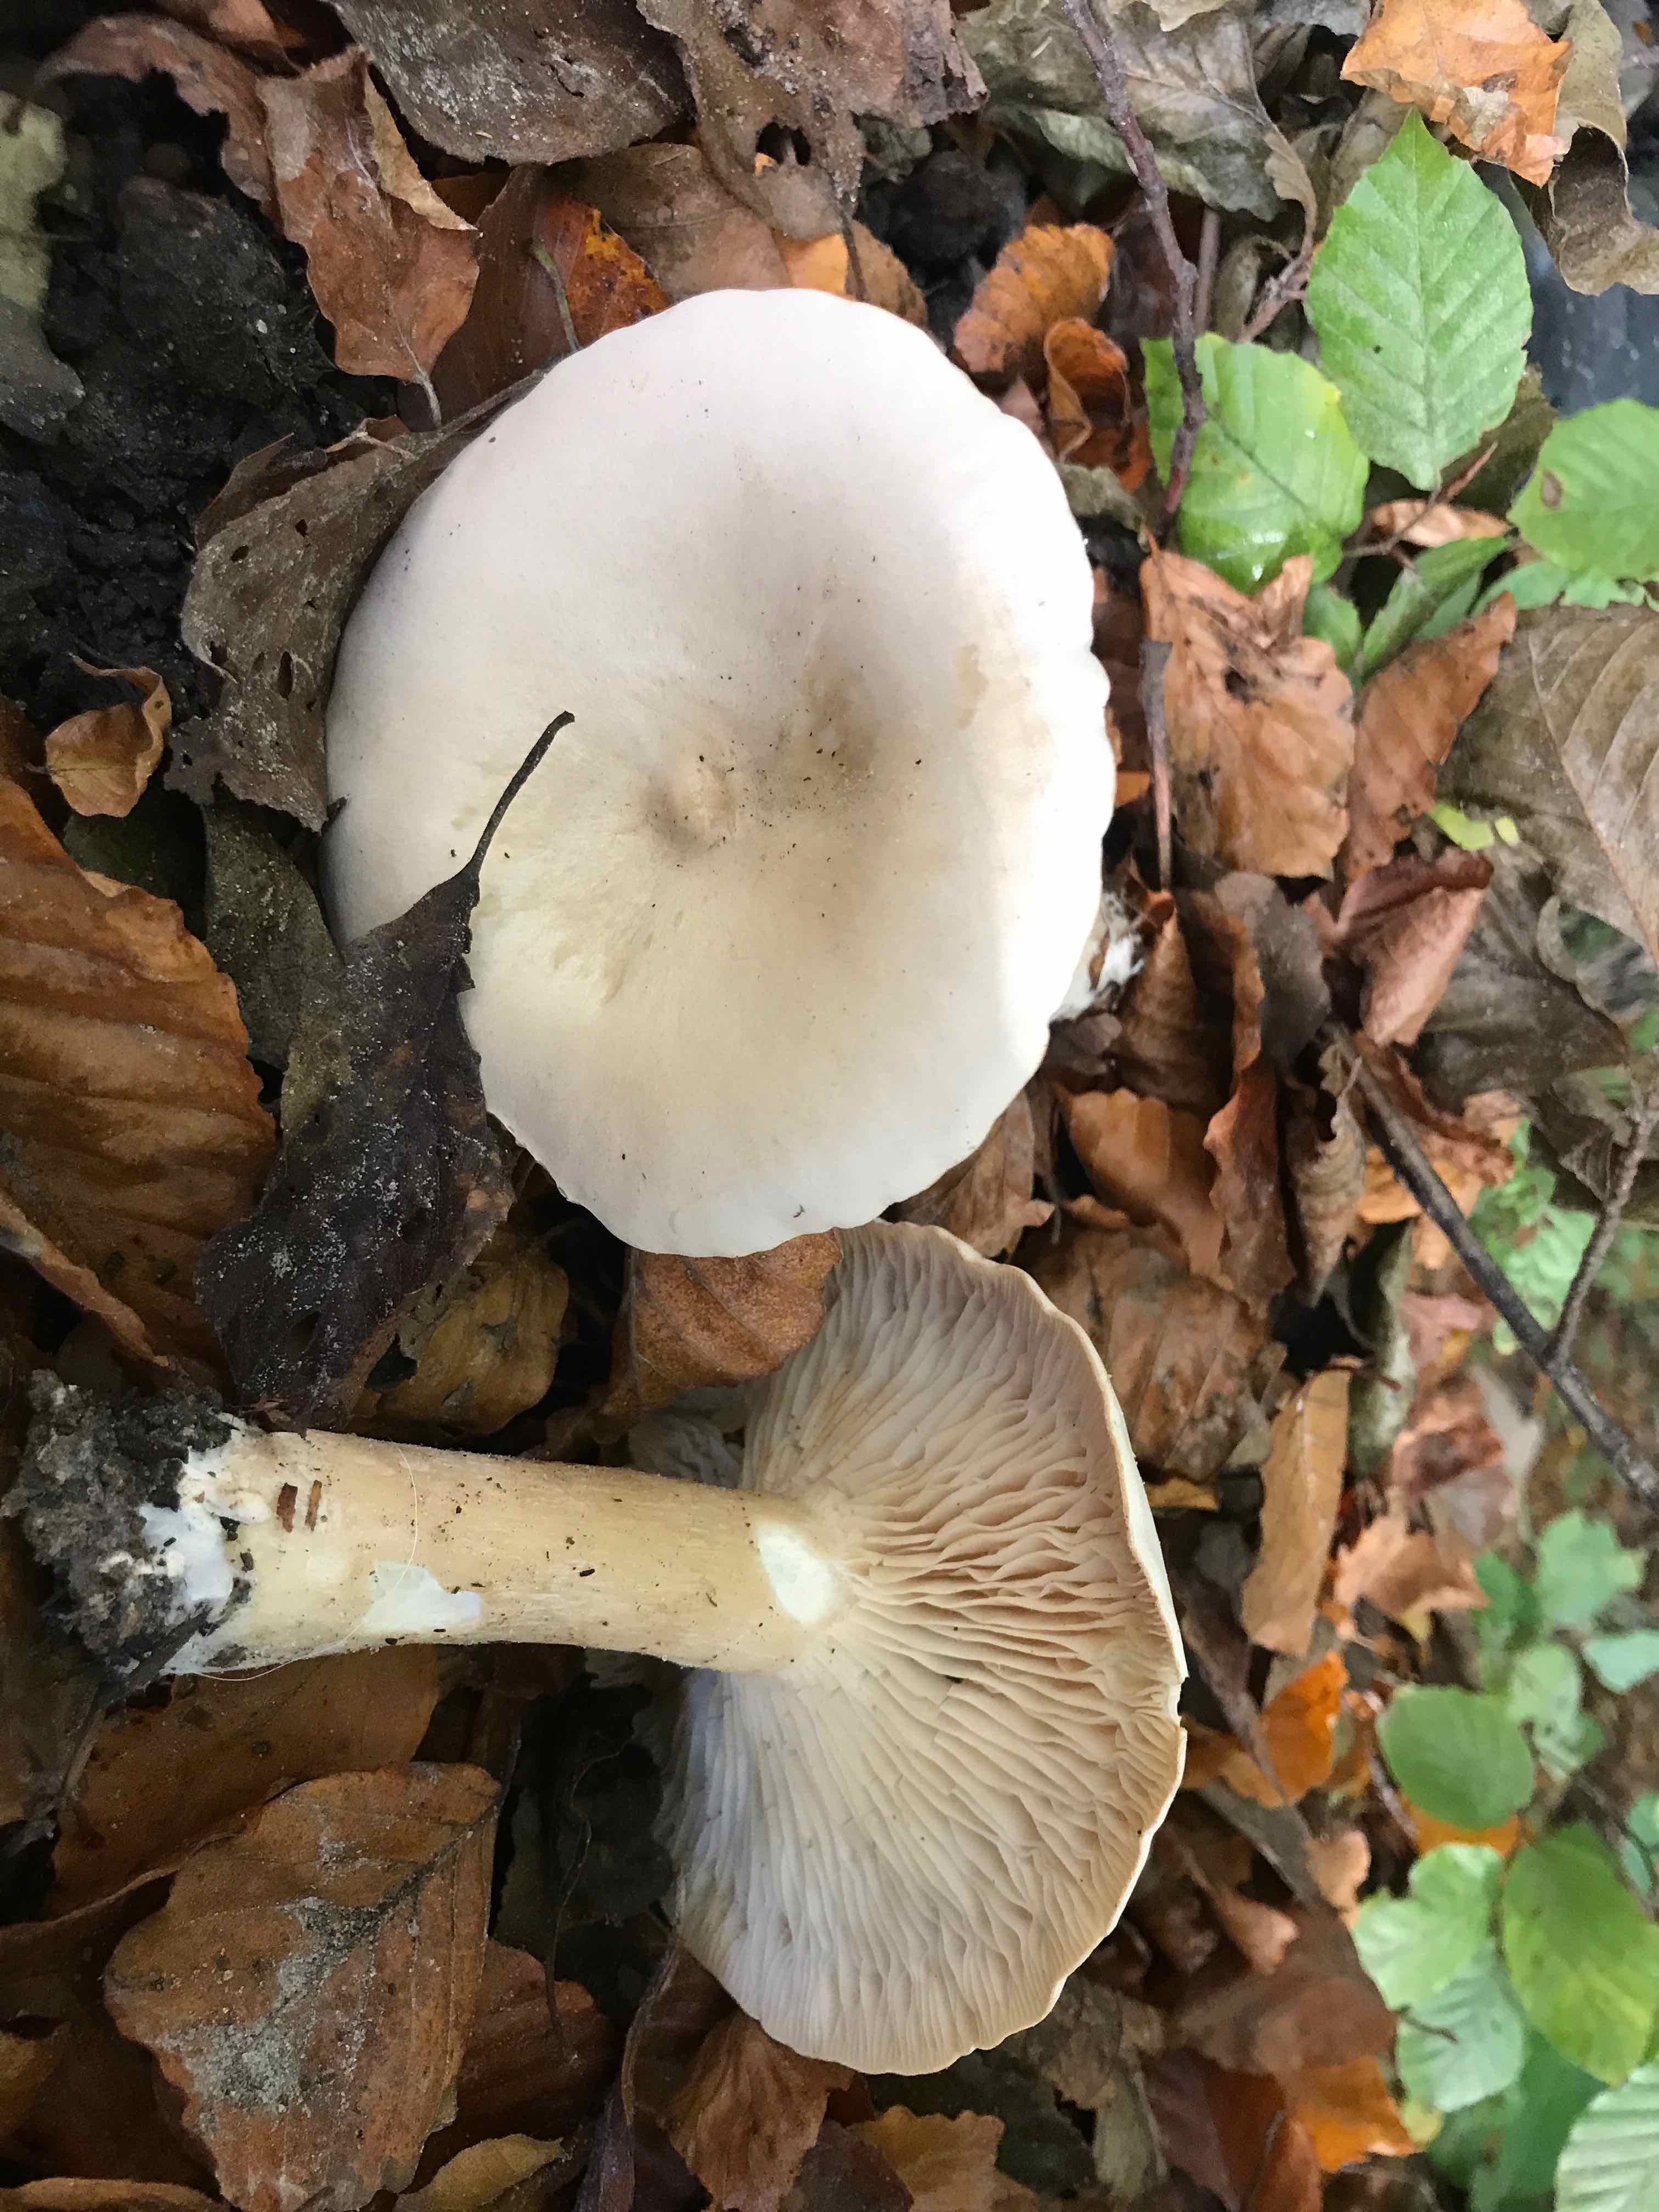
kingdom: Fungi
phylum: Basidiomycota
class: Agaricomycetes
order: Agaricales
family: Tricholomataceae
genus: Infundibulicybe
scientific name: Infundibulicybe geotropa
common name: stor tragthat
